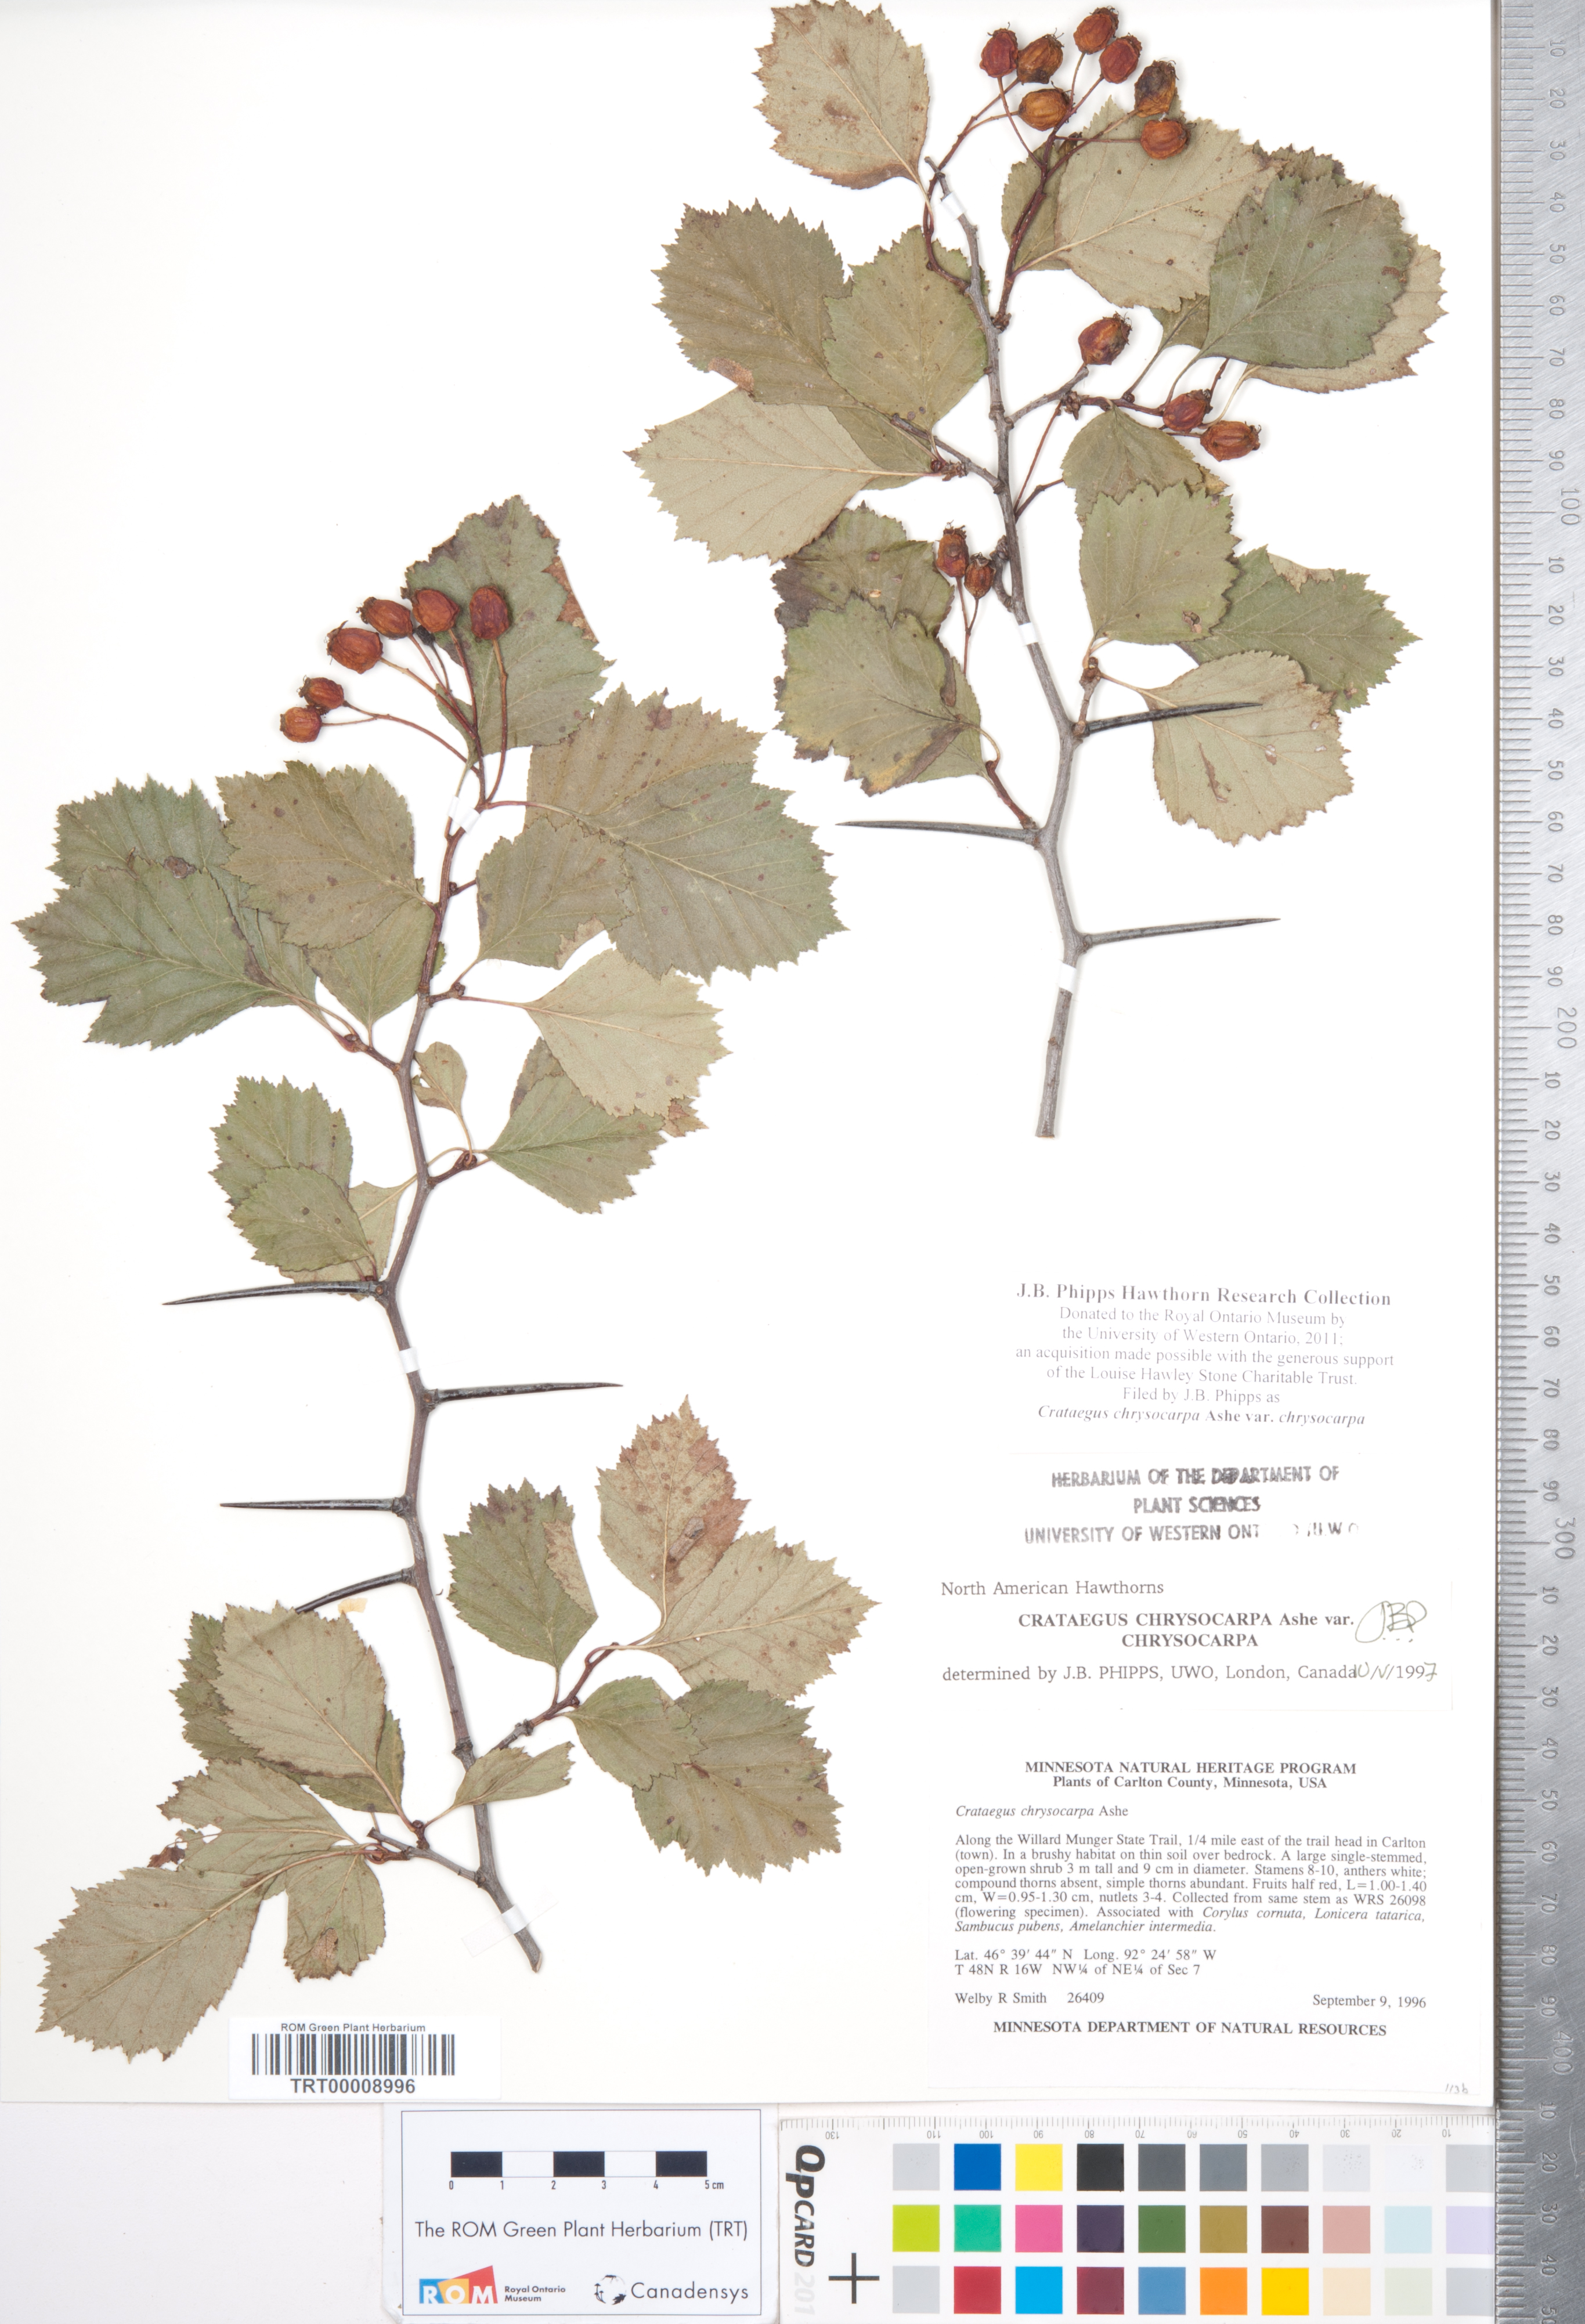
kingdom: Plantae
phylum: Tracheophyta
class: Magnoliopsida
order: Rosales
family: Rosaceae
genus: Crataegus
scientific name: Crataegus chrysocarpa
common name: Fire-berry hawthorn
